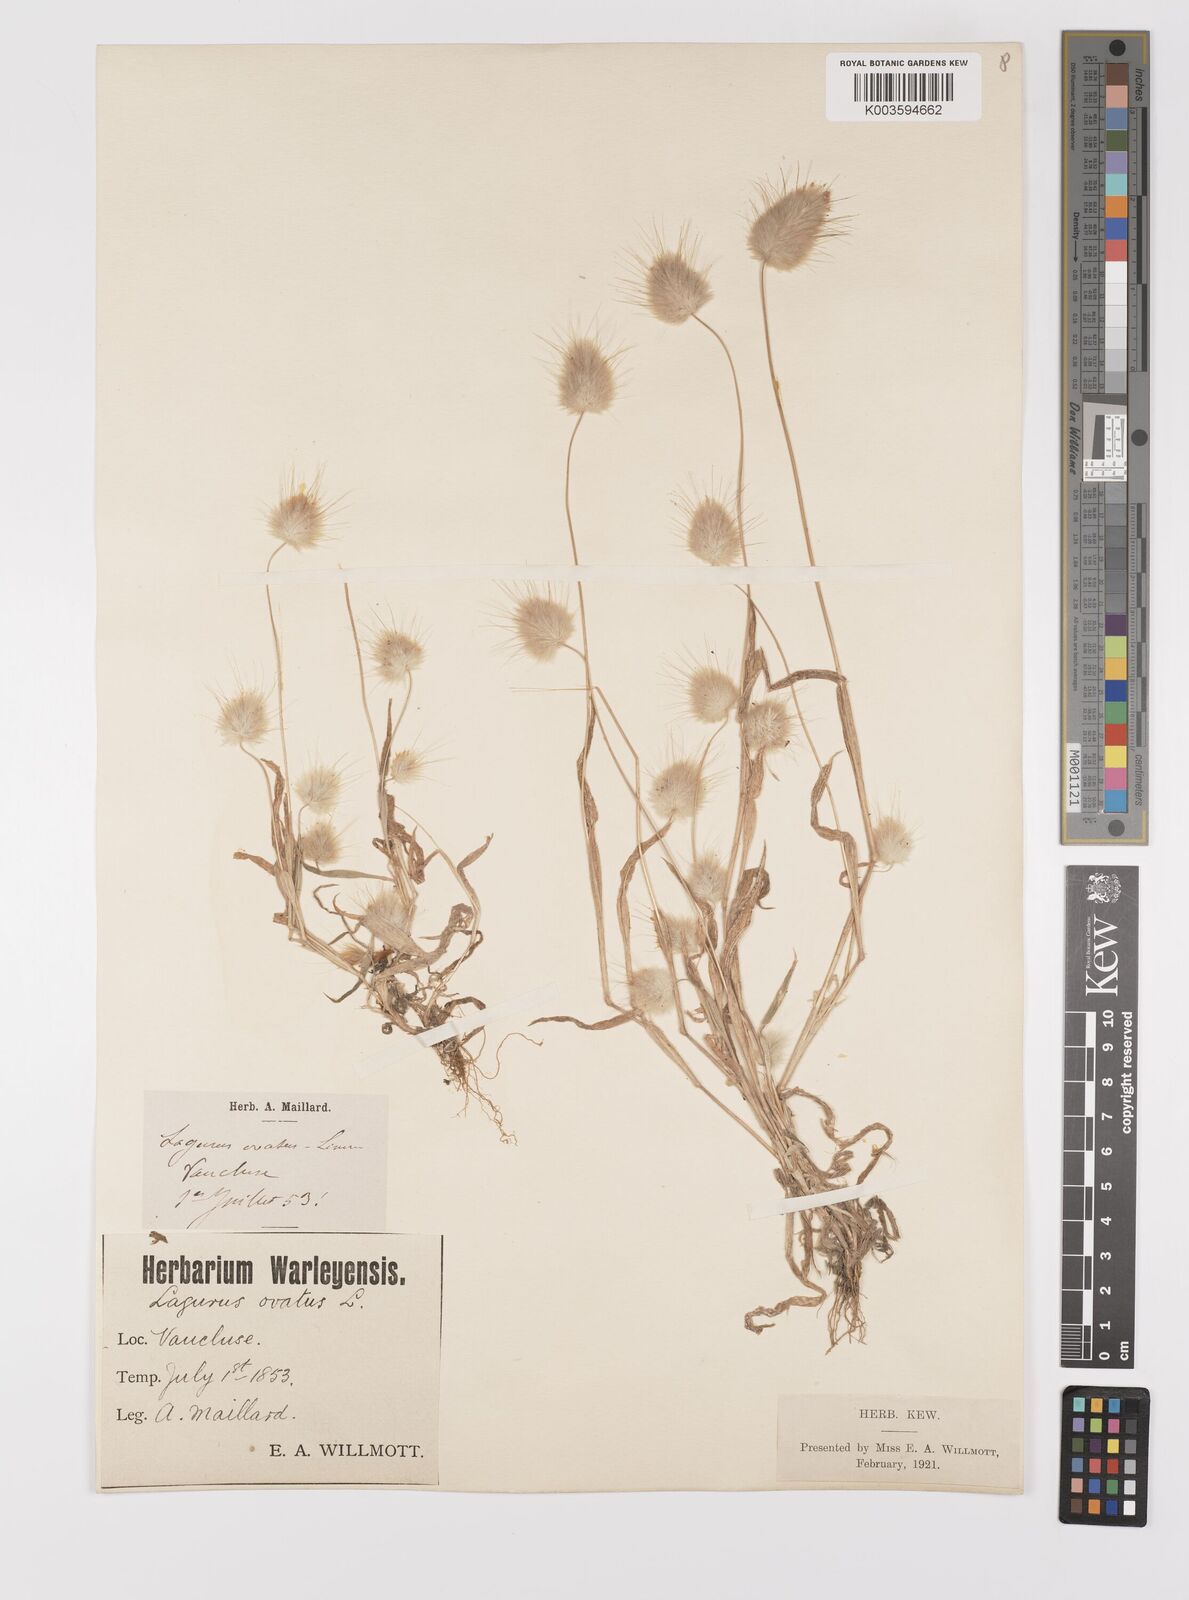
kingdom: Plantae
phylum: Tracheophyta
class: Liliopsida
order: Poales
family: Poaceae
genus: Lagurus
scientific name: Lagurus ovatus
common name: Hare's-tail
